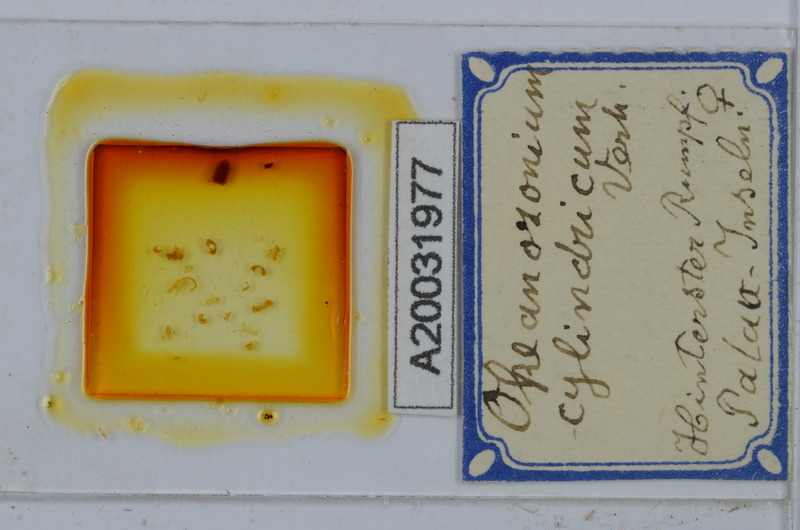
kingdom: Animalia
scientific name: Animalia
